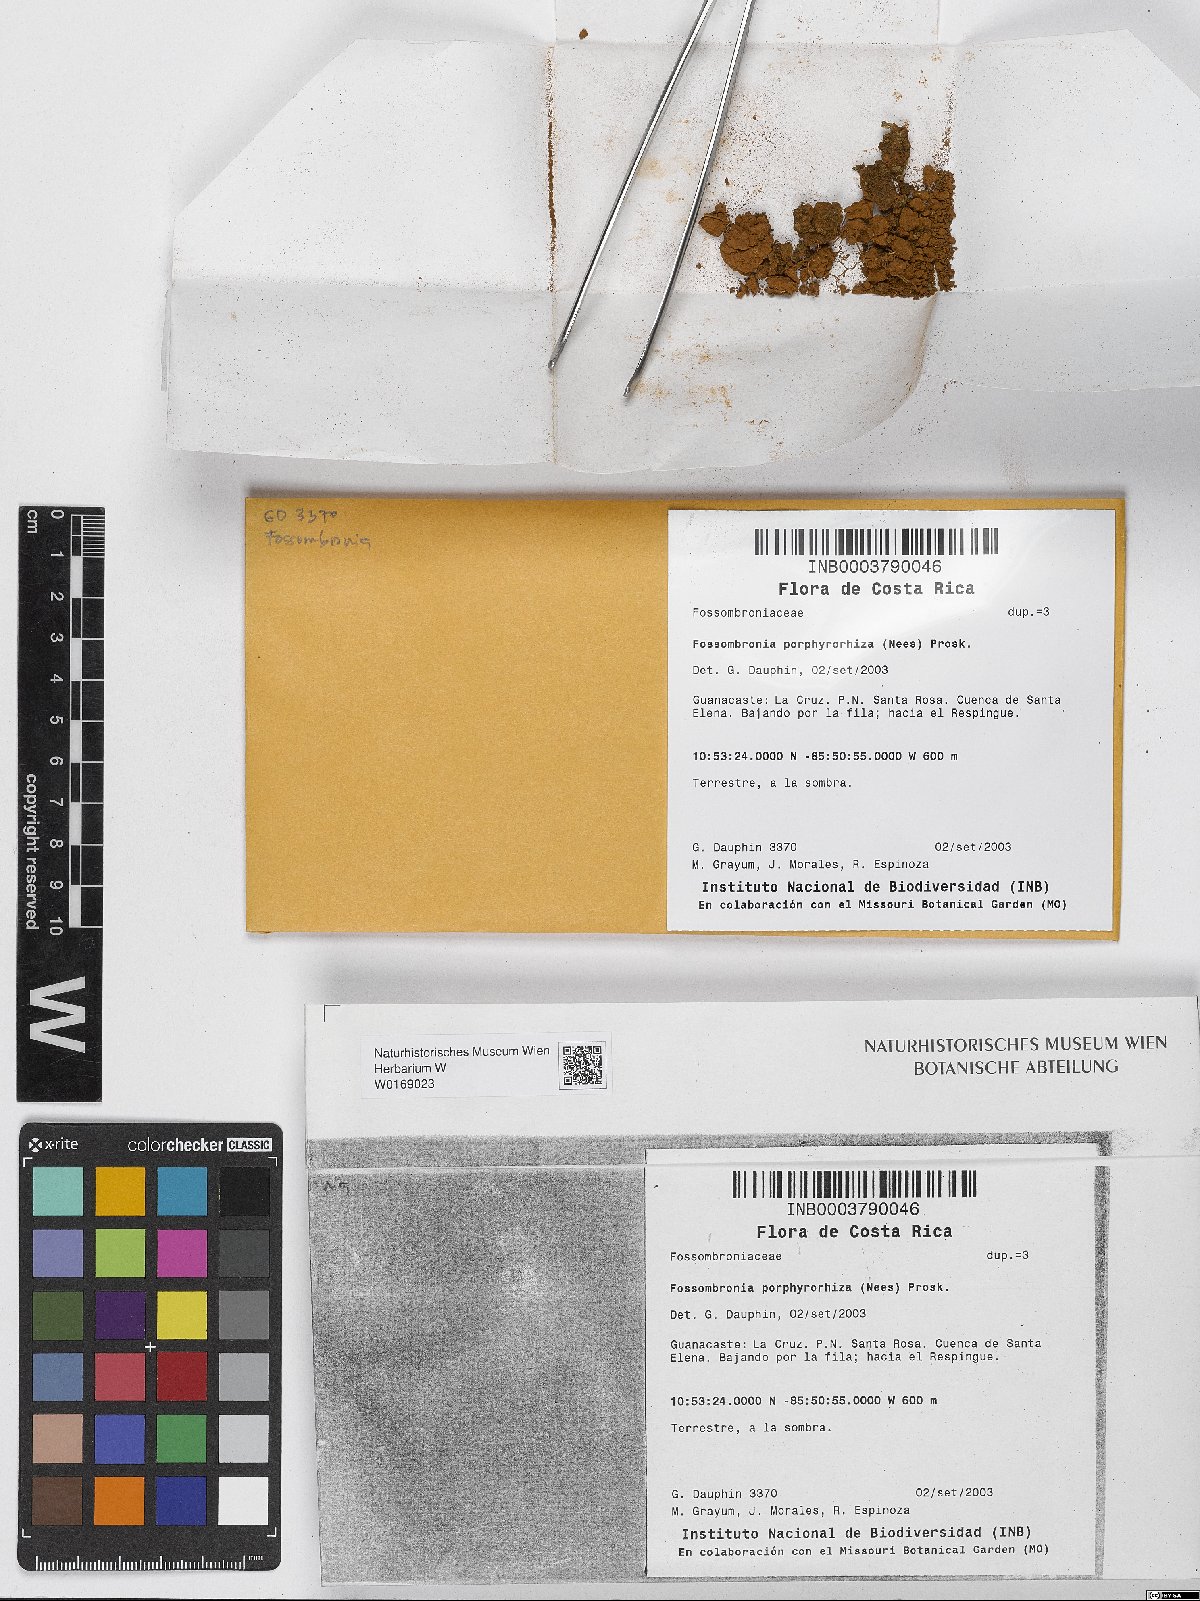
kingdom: Plantae
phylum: Marchantiophyta
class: Jungermanniopsida
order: Fossombroniales
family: Fossombroniaceae
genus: Fossombronia
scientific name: Fossombronia
